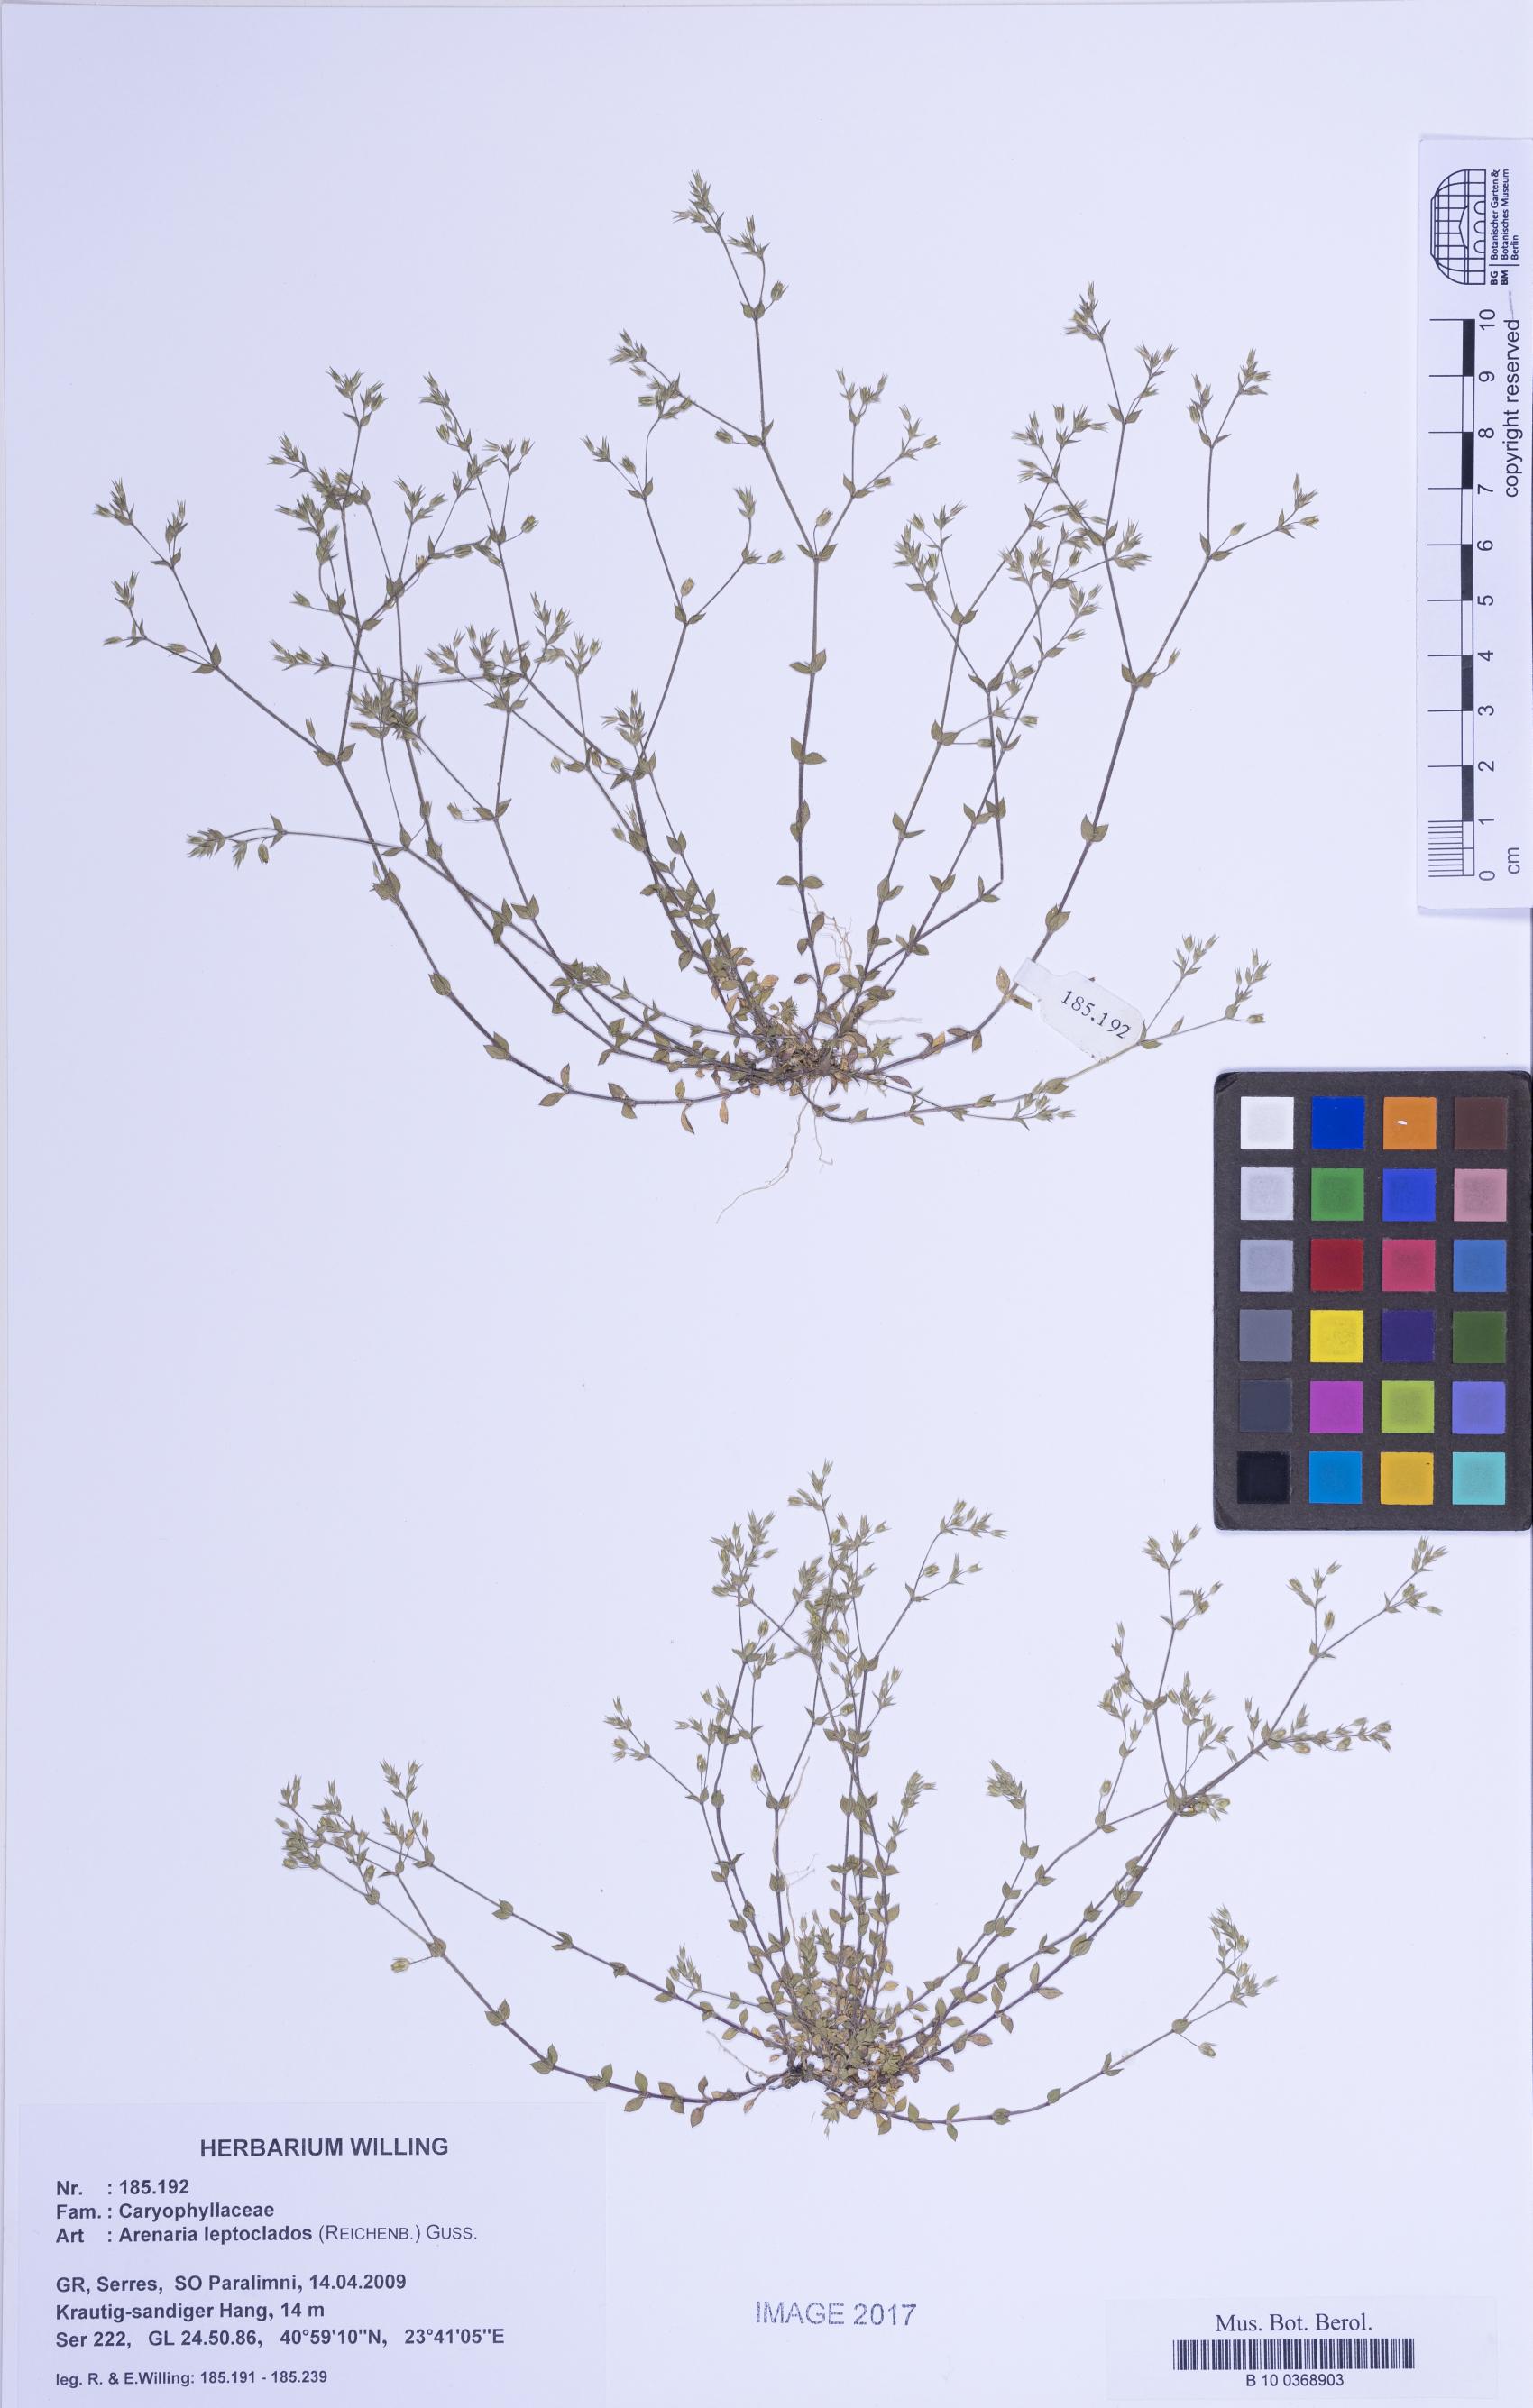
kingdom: Plantae
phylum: Tracheophyta
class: Magnoliopsida
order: Caryophyllales
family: Caryophyllaceae
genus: Arenaria
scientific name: Arenaria leptoclados
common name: Thyme-leaved sandwort
